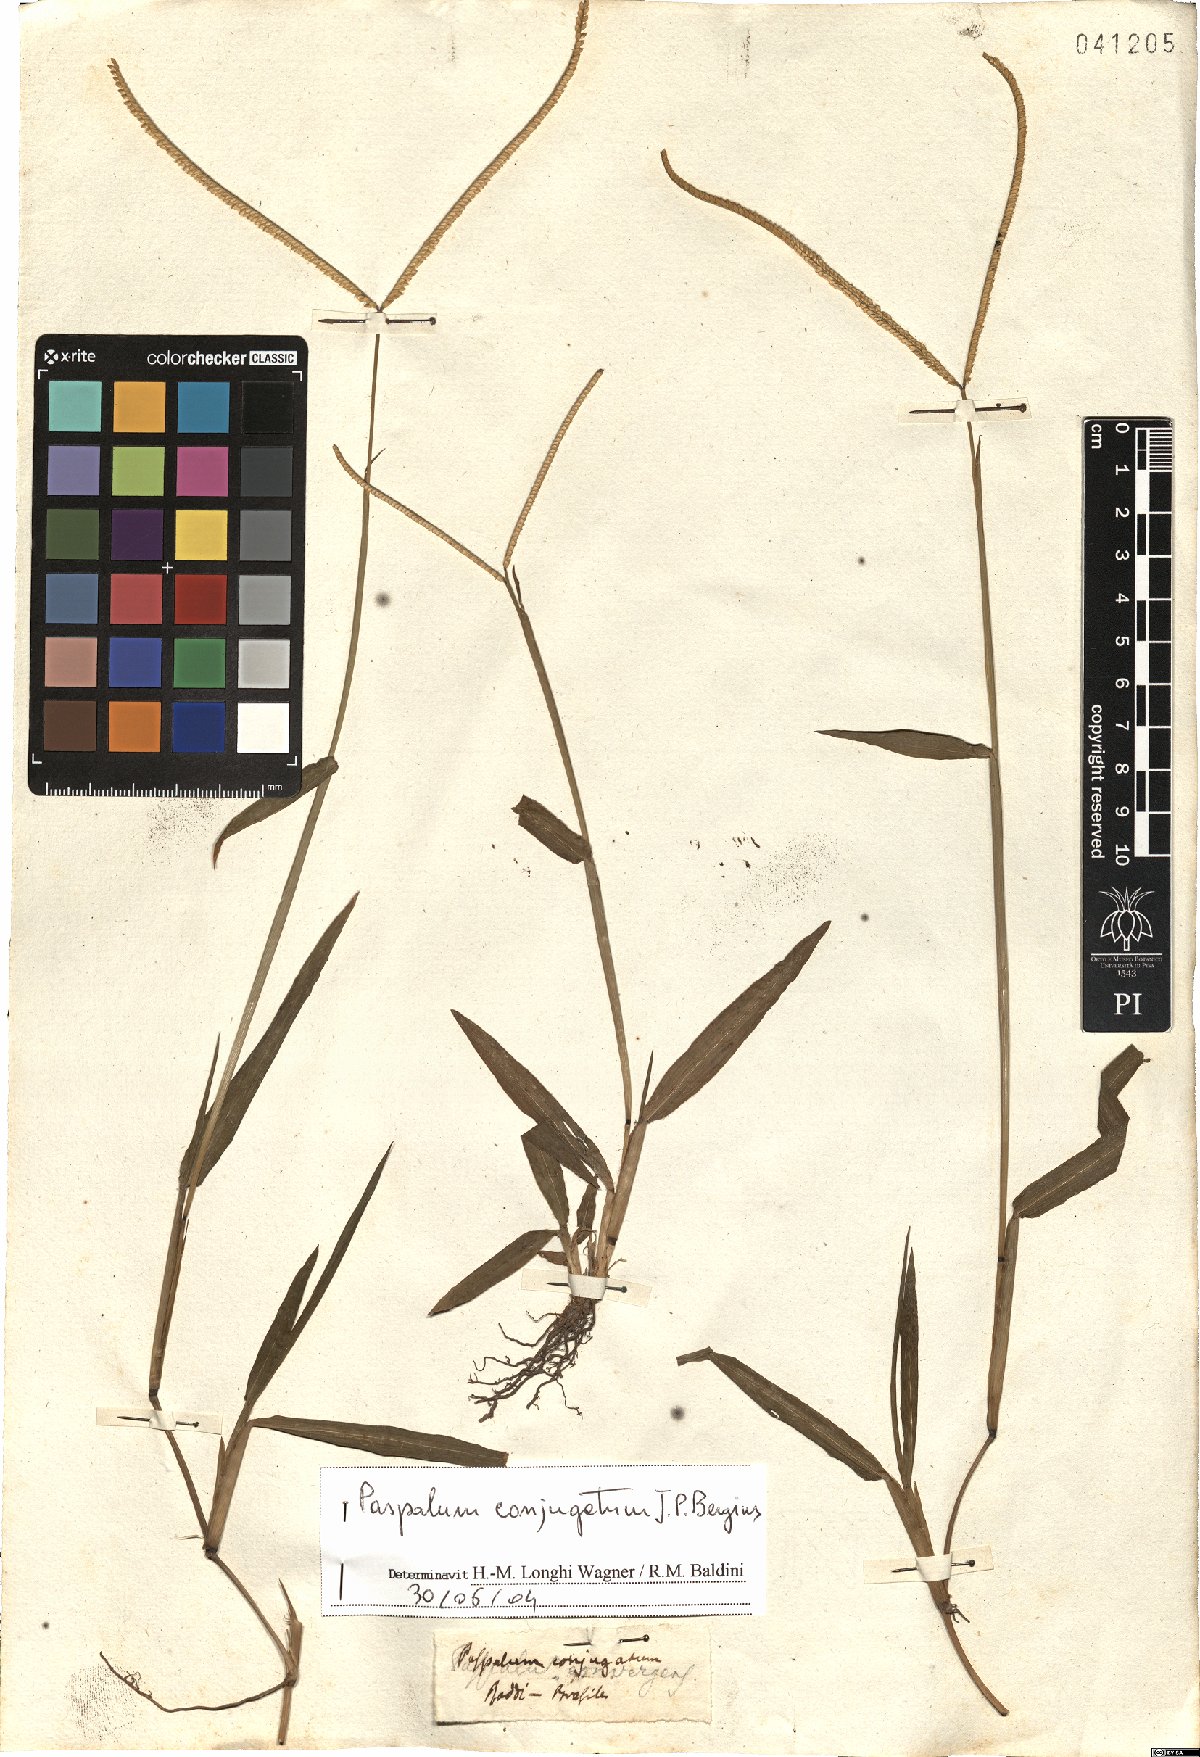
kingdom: Plantae
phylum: Tracheophyta
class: Liliopsida
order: Poales
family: Poaceae
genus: Paspalum
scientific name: Paspalum conjugatum
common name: Hilograss
